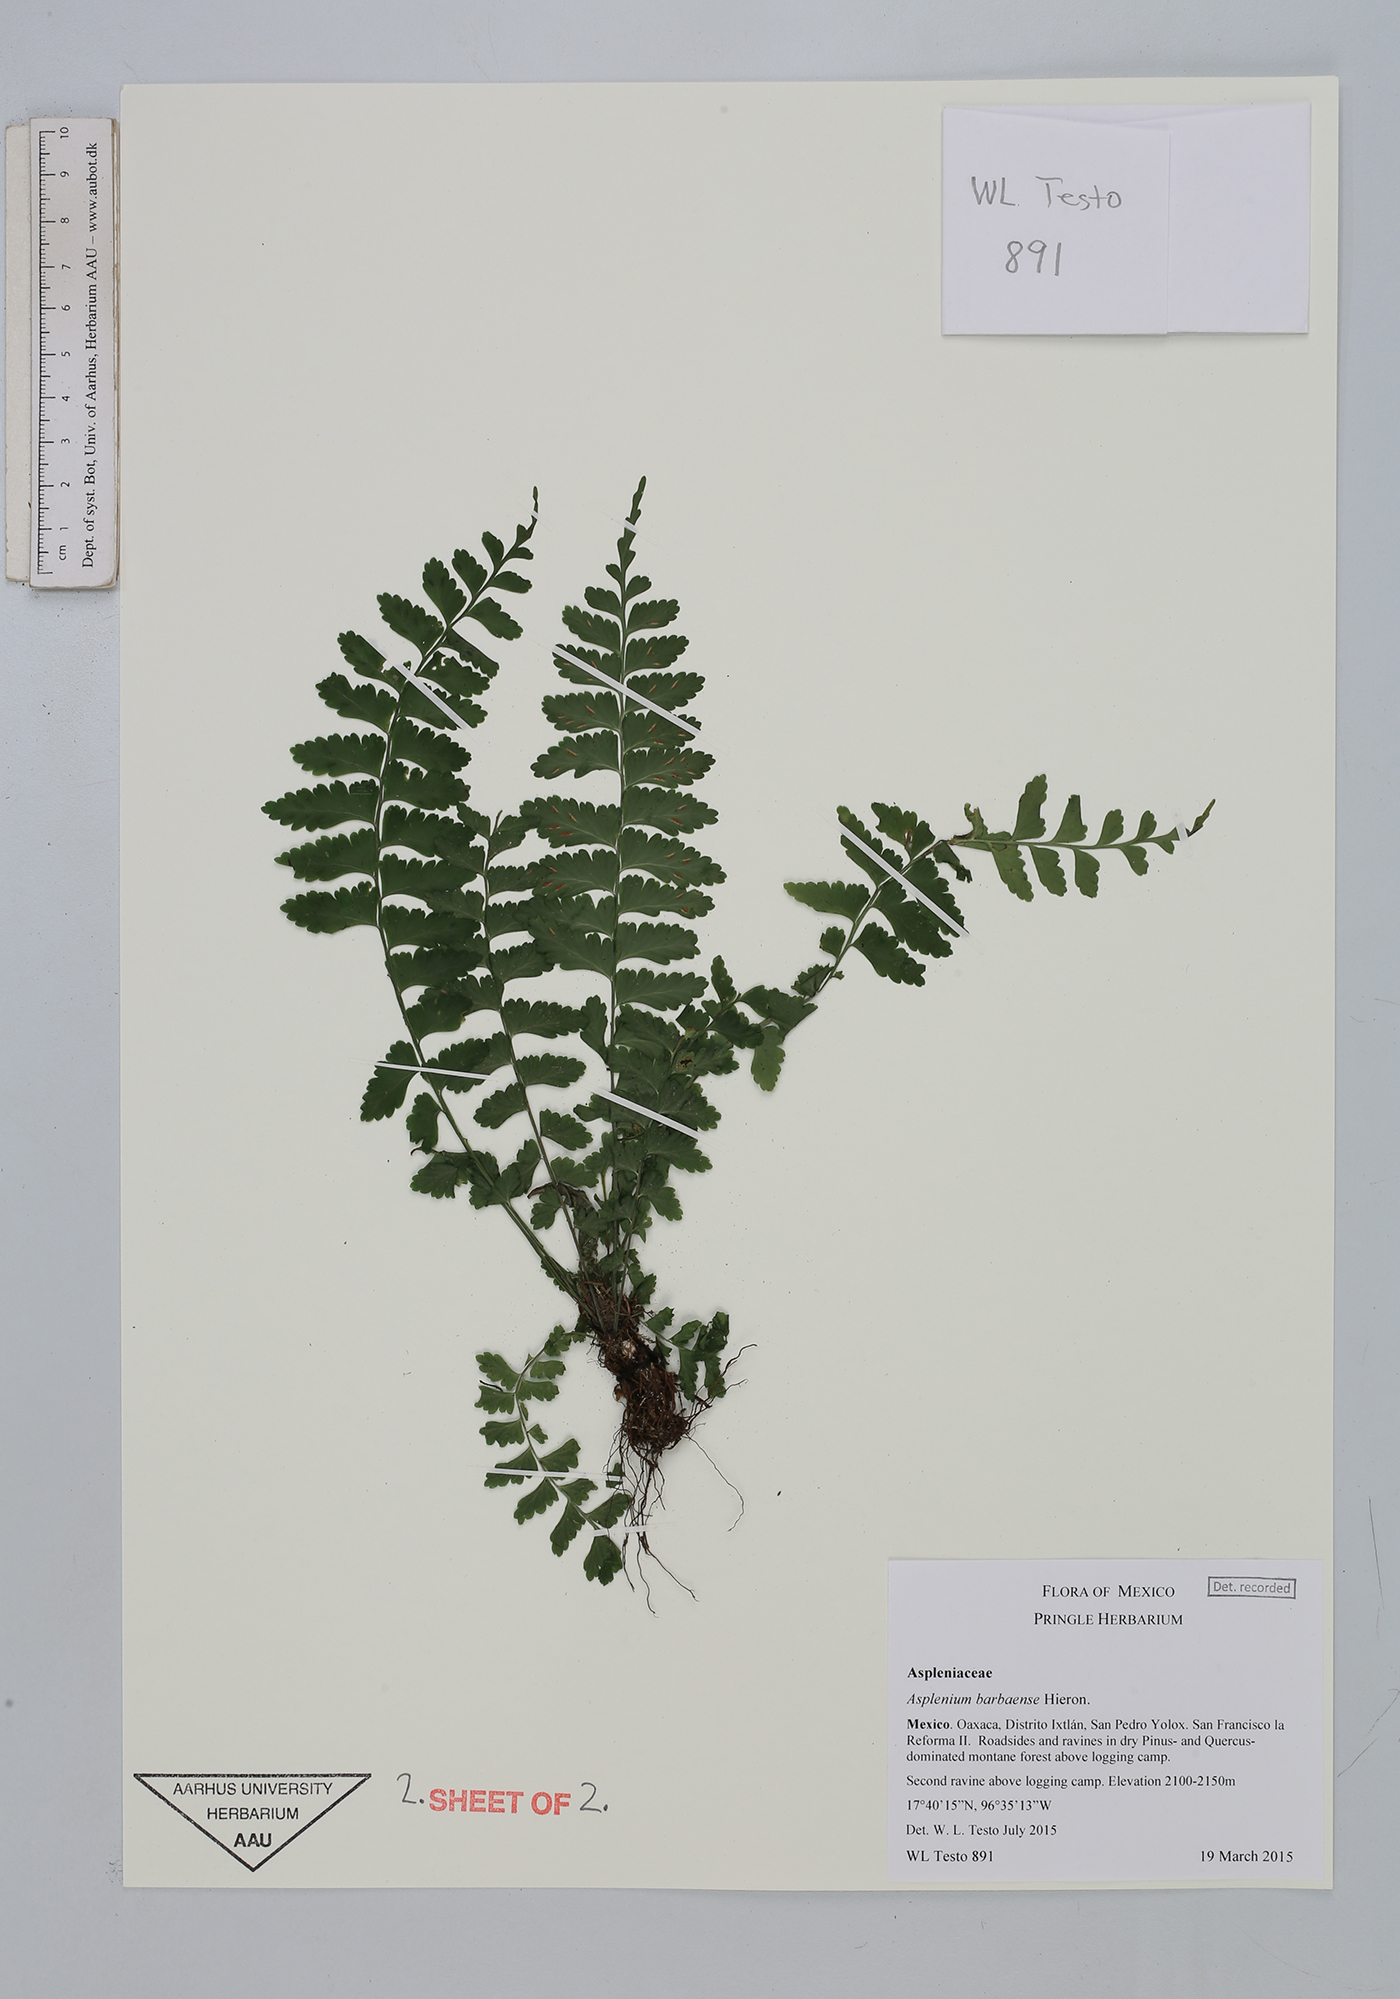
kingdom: Plantae
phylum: Tracheophyta
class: Polypodiopsida
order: Polypodiales
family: Aspleniaceae
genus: Asplenium
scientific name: Asplenium barbaense
